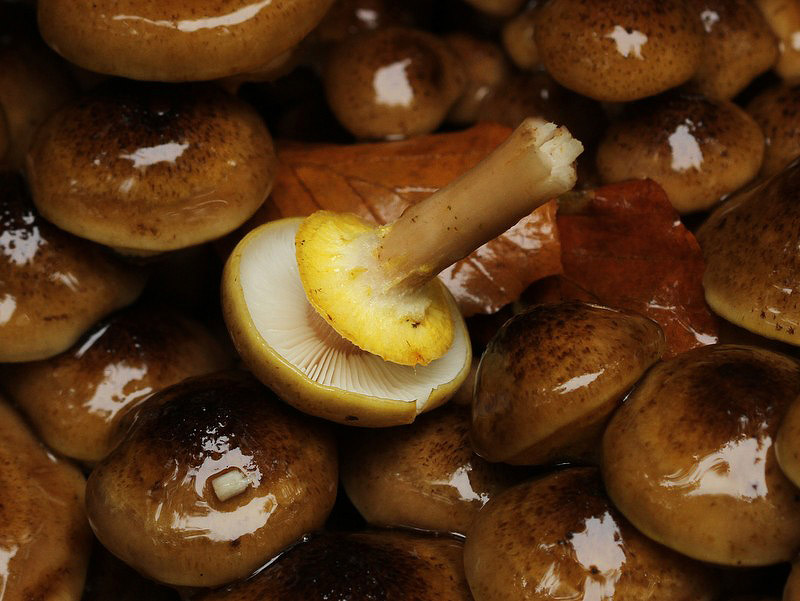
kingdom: Fungi
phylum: Basidiomycota
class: Agaricomycetes
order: Agaricales
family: Physalacriaceae
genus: Armillaria
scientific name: Armillaria mellea
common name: ægte honningsvamp
